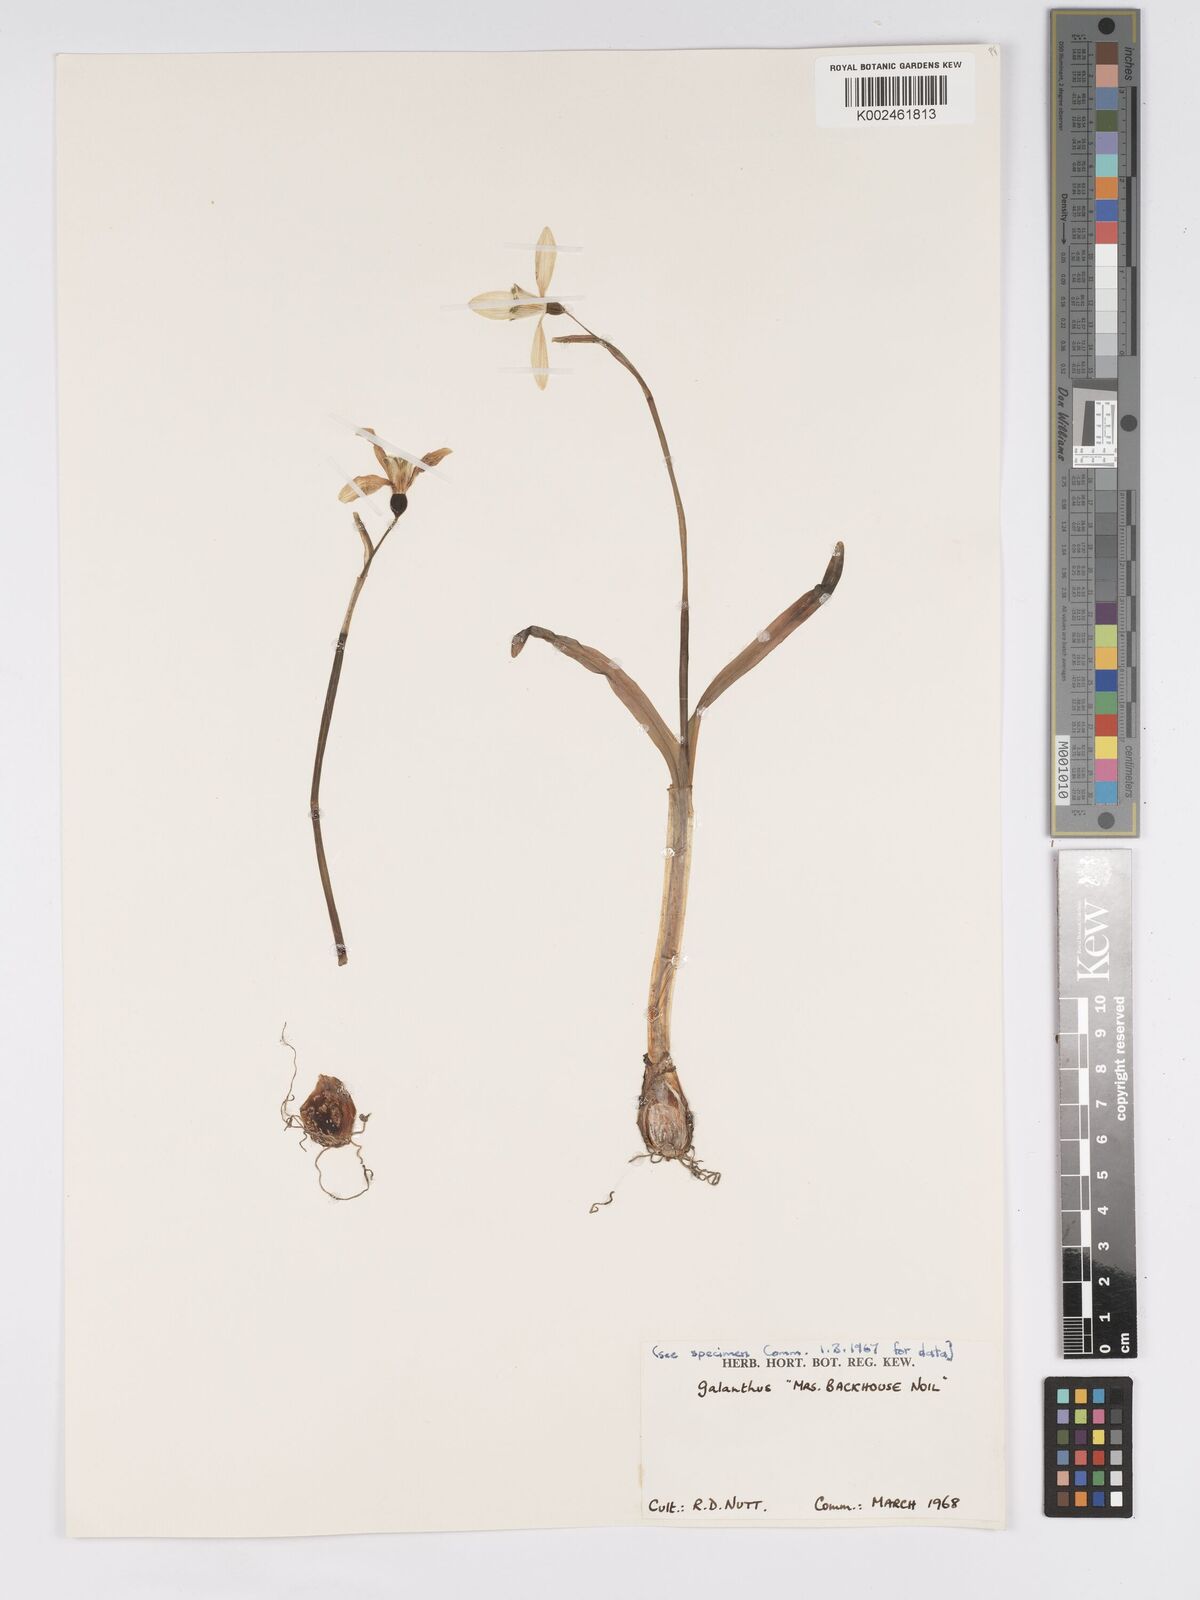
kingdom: Plantae
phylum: Tracheophyta
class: Liliopsida
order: Asparagales
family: Amaryllidaceae
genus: Galanthus
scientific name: Galanthus
